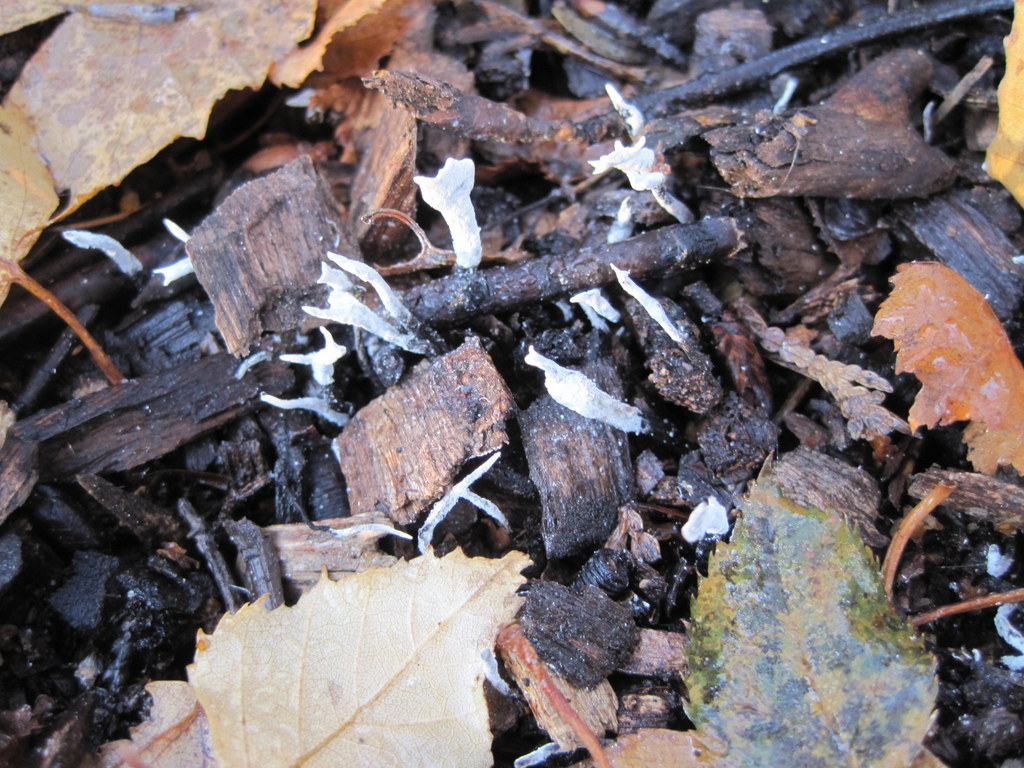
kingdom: Fungi
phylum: Ascomycota
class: Sordariomycetes
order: Xylariales
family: Xylariaceae
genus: Xylaria
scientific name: Xylaria hypoxylon
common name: grenet stødsvamp
